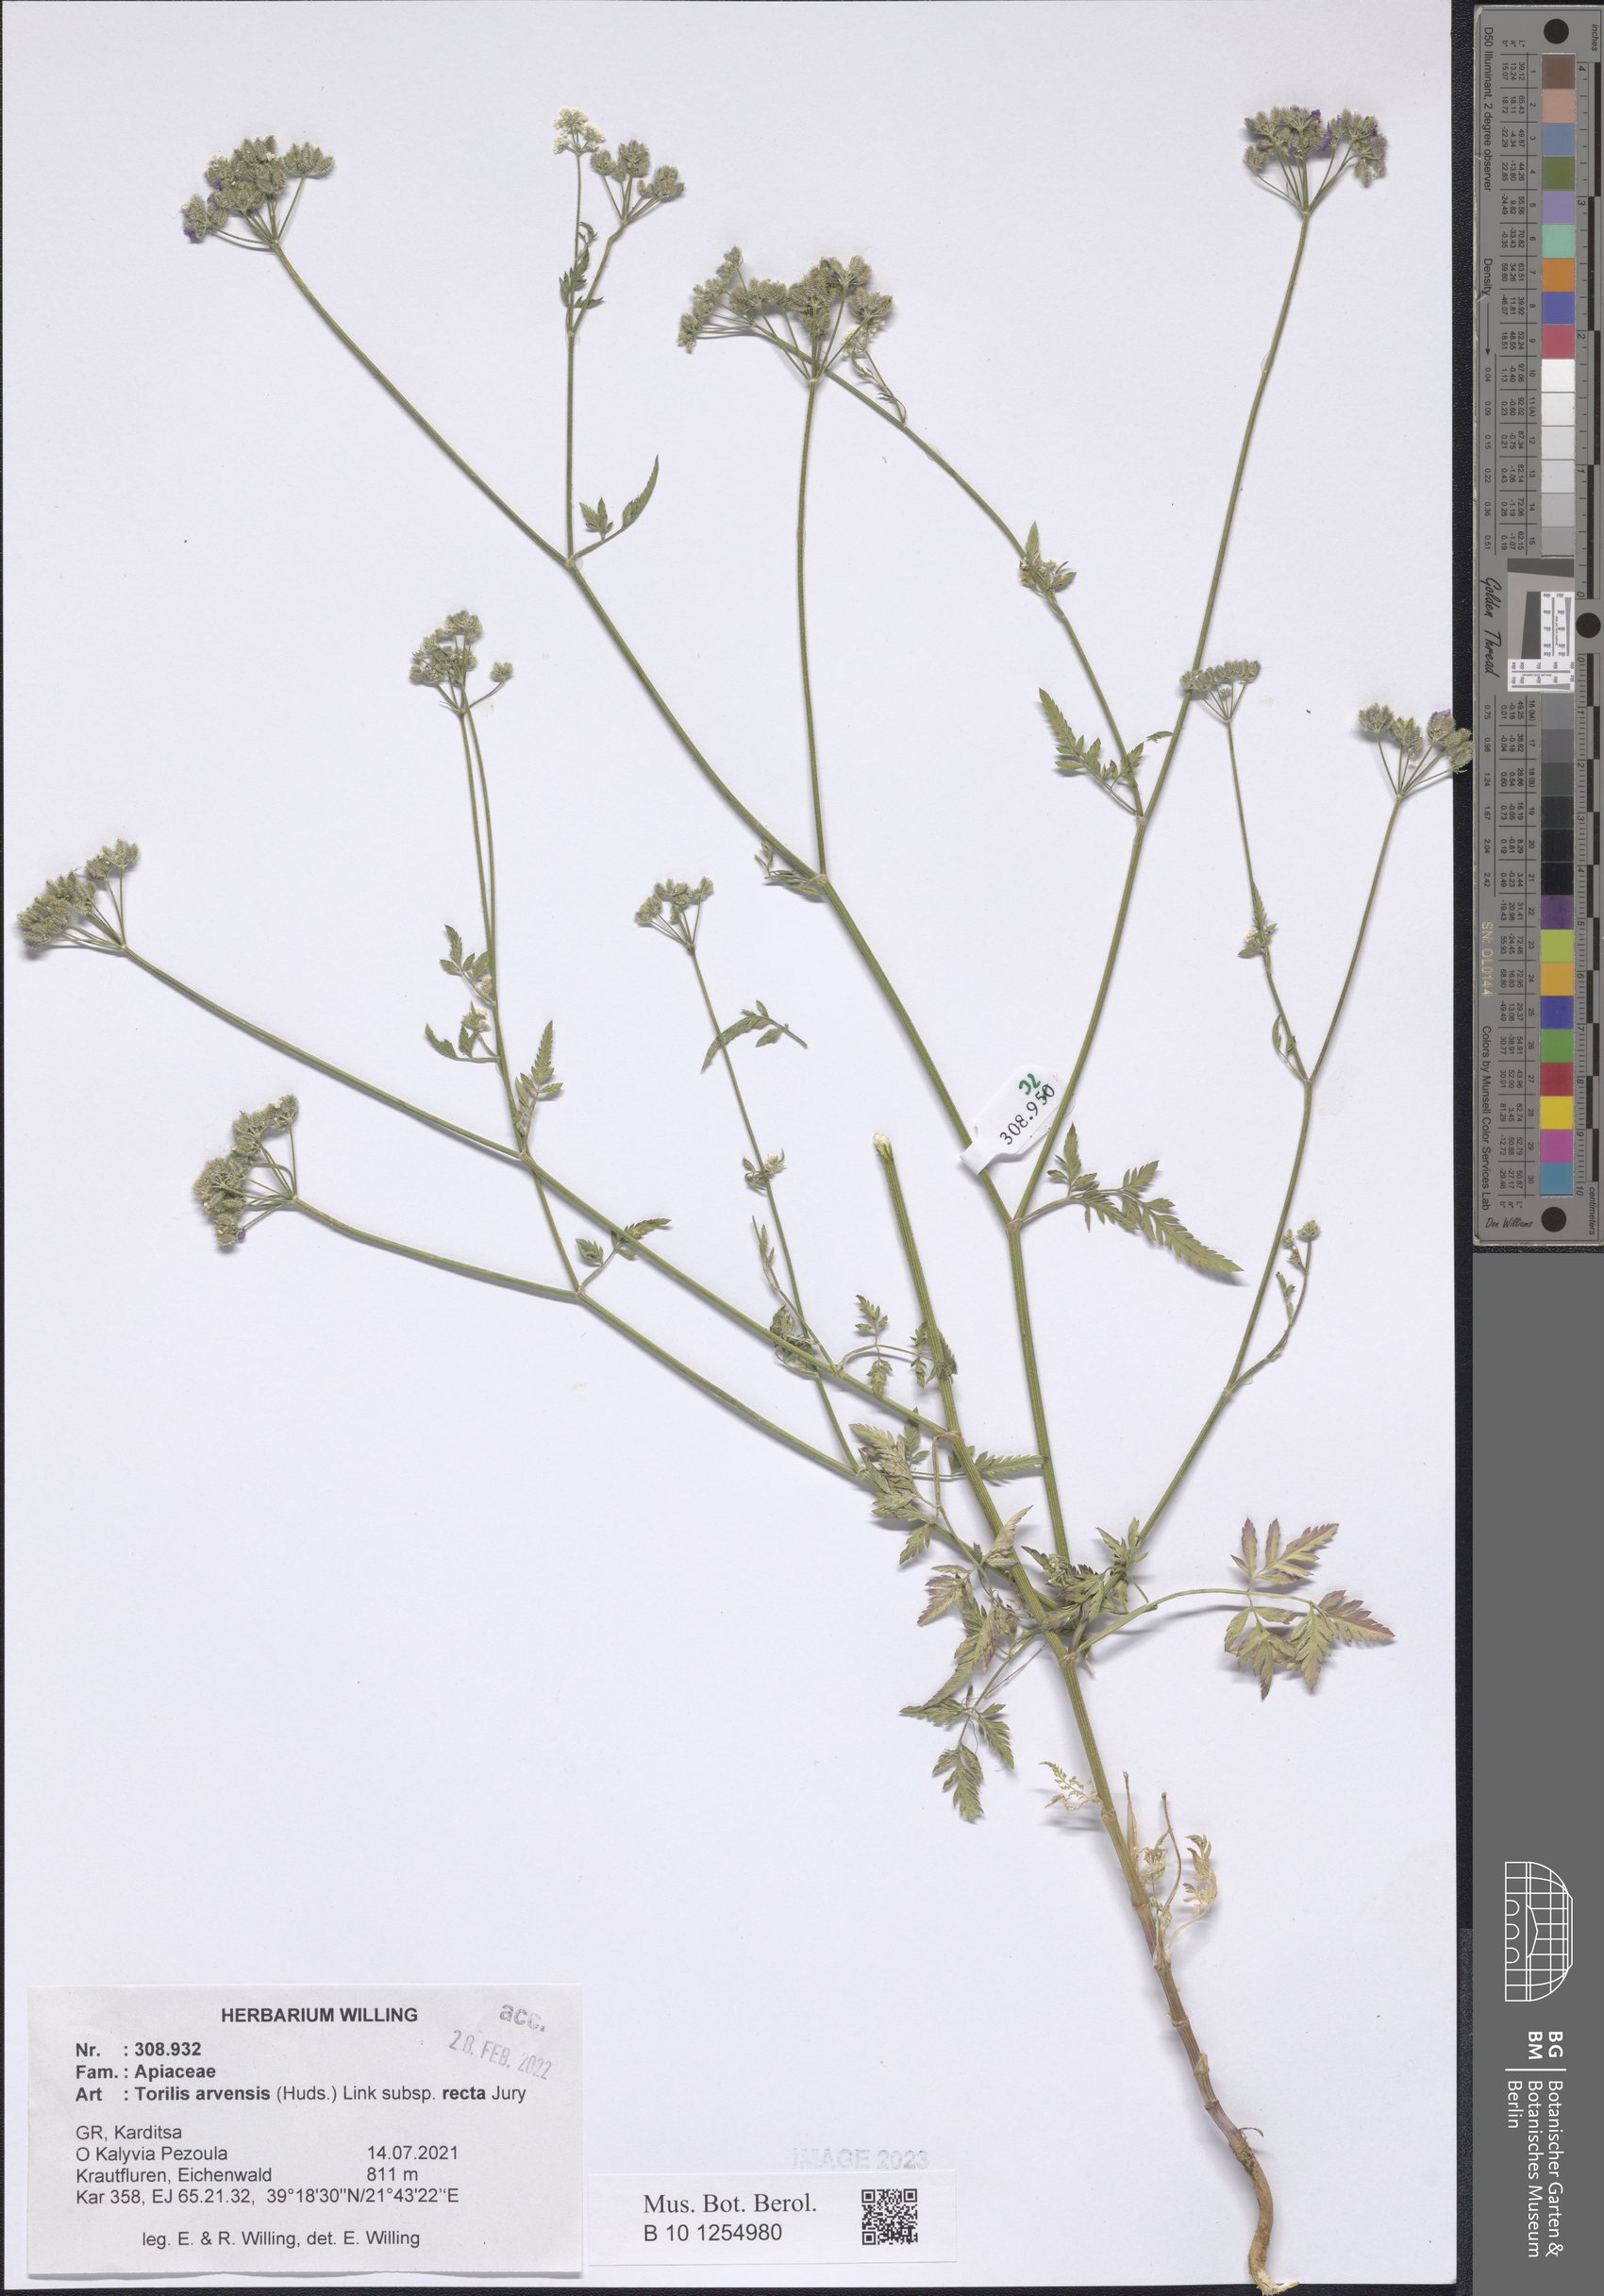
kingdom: Plantae
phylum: Tracheophyta
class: Magnoliopsida
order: Apiales
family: Apiaceae
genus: Torilis
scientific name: Torilis arvensis
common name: Spreading hedge-parsley
